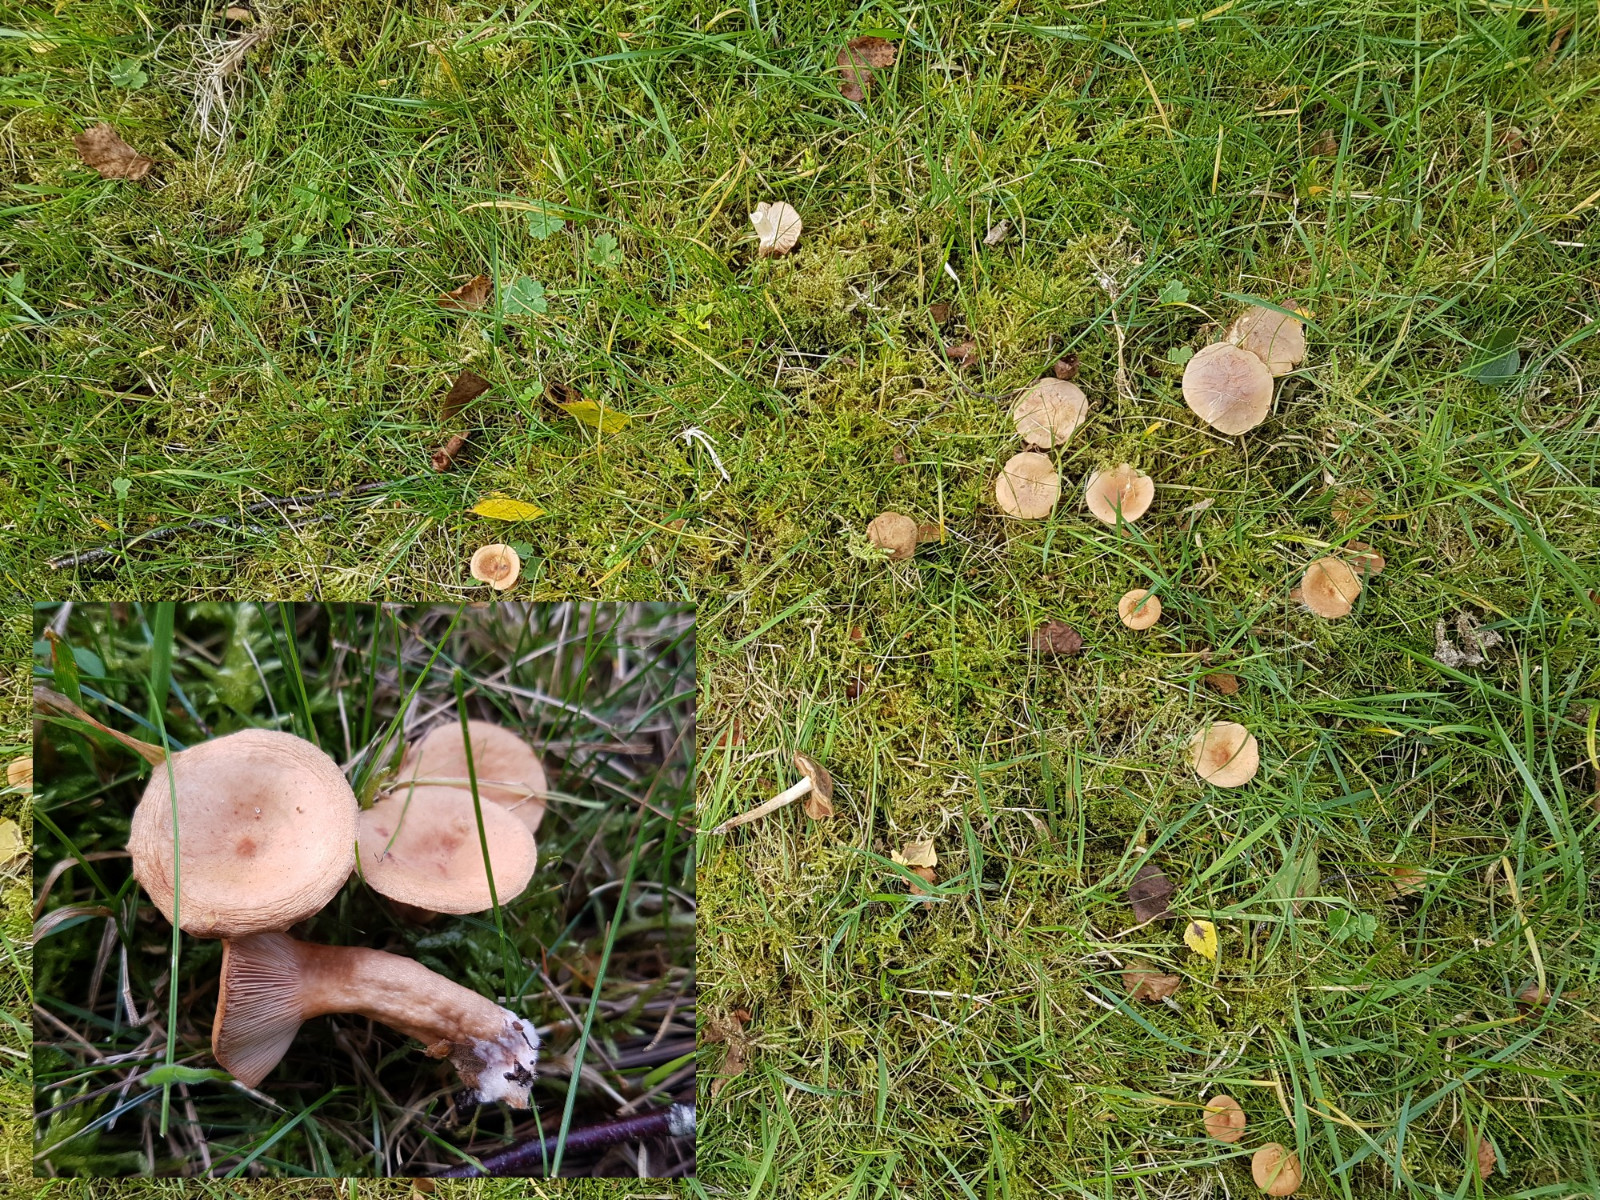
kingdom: Fungi
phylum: Basidiomycota
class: Agaricomycetes
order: Russulales
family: Russulaceae
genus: Lactarius
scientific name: Lactarius tabidus
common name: rynket mælkehat
